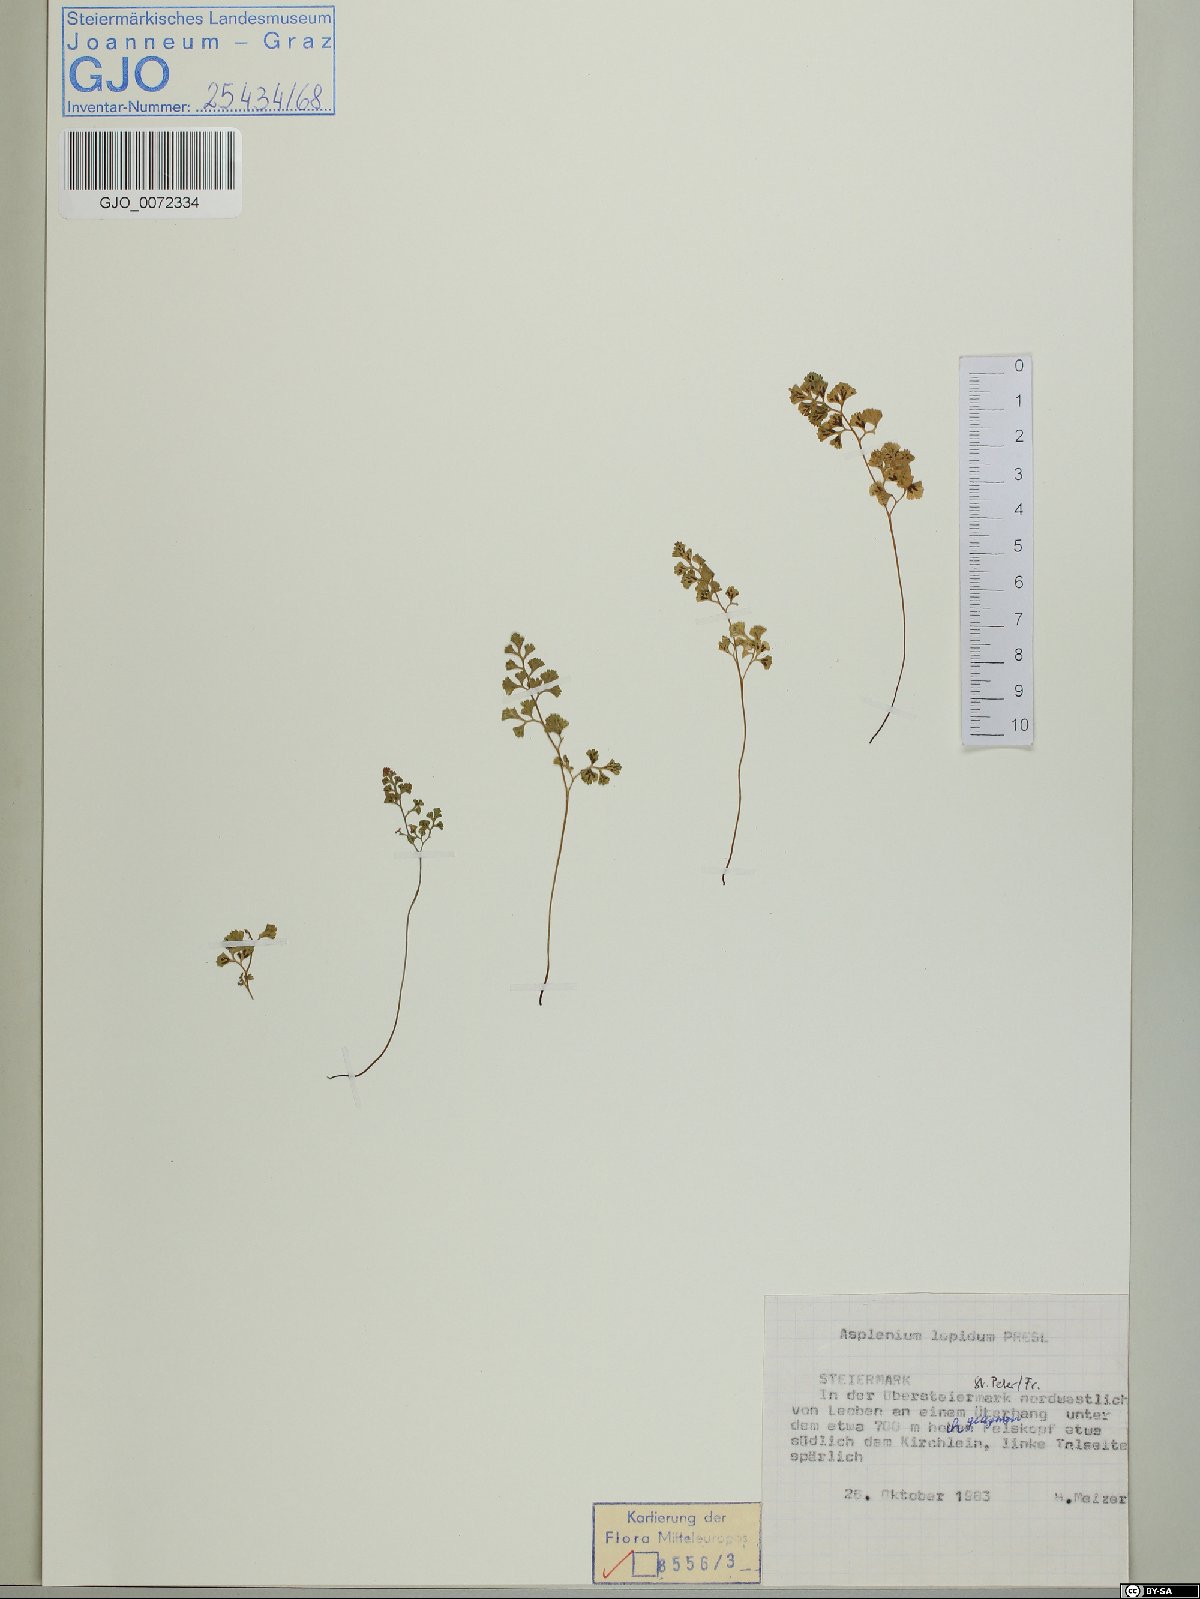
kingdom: Plantae
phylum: Tracheophyta
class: Polypodiopsida
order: Polypodiales
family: Aspleniaceae
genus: Asplenium
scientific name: Asplenium lepidum
